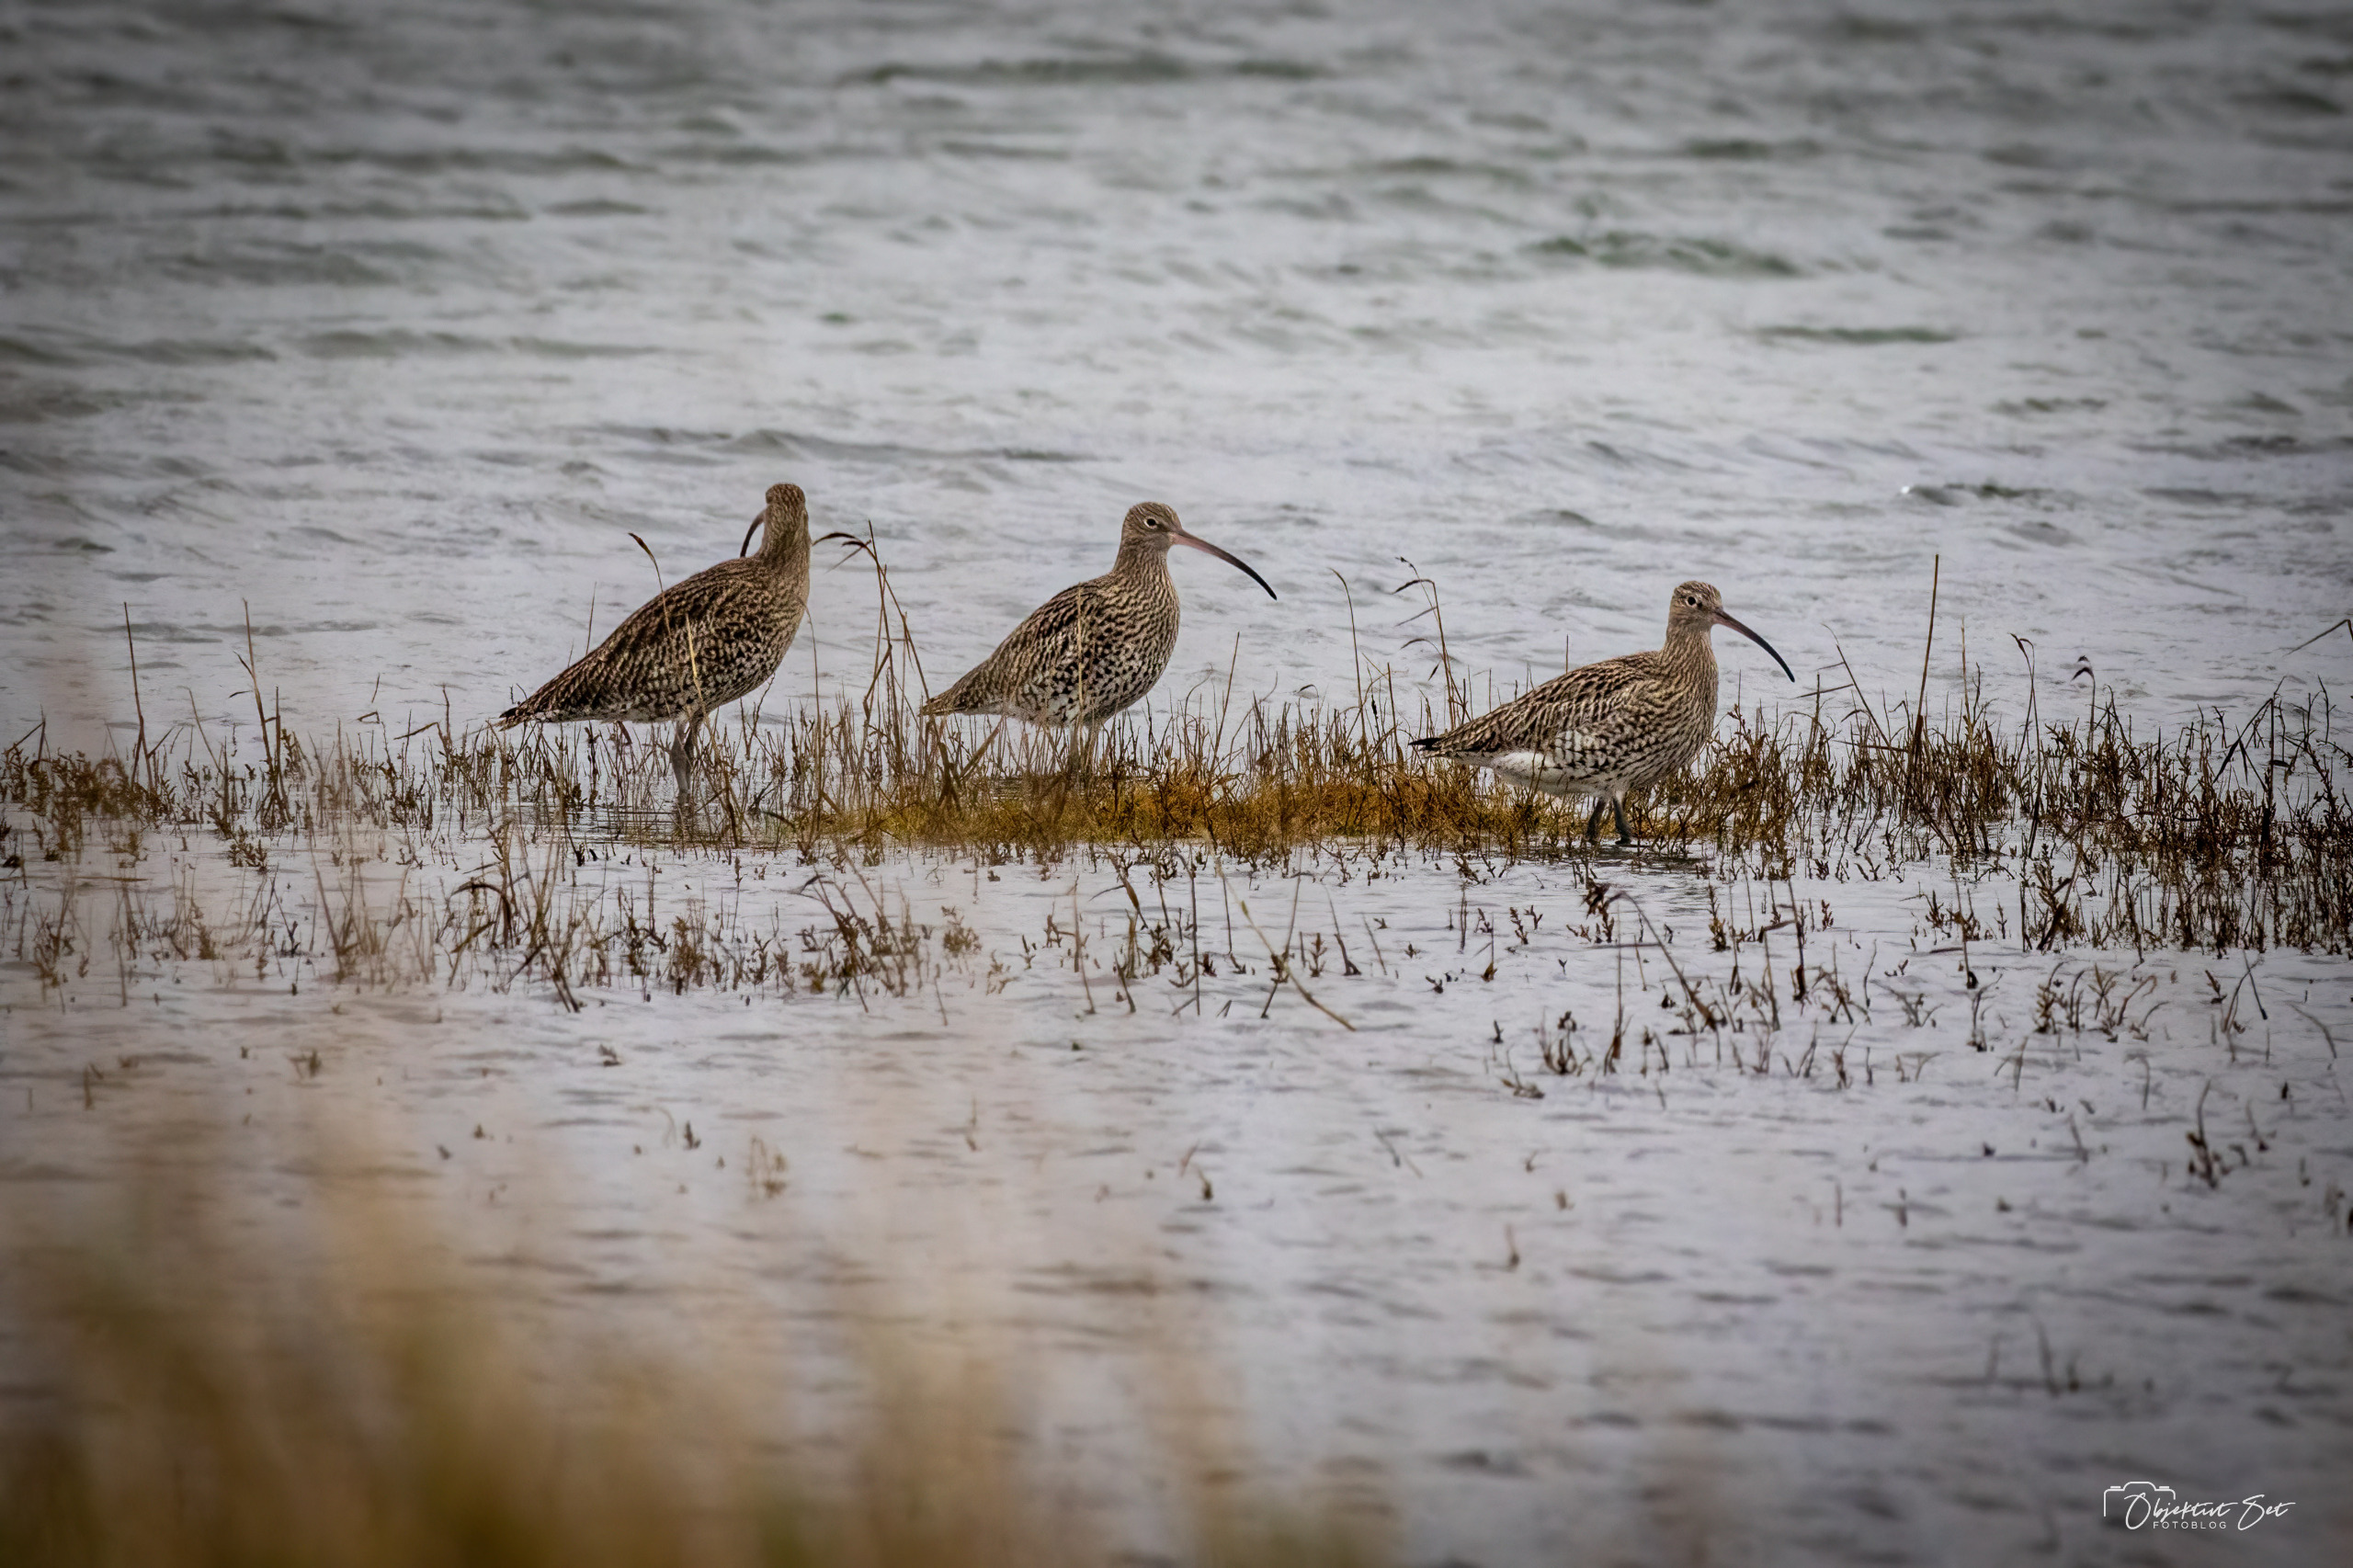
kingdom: Animalia
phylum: Chordata
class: Aves
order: Charadriiformes
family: Scolopacidae
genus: Numenius
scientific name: Numenius arquata
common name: Storspove
